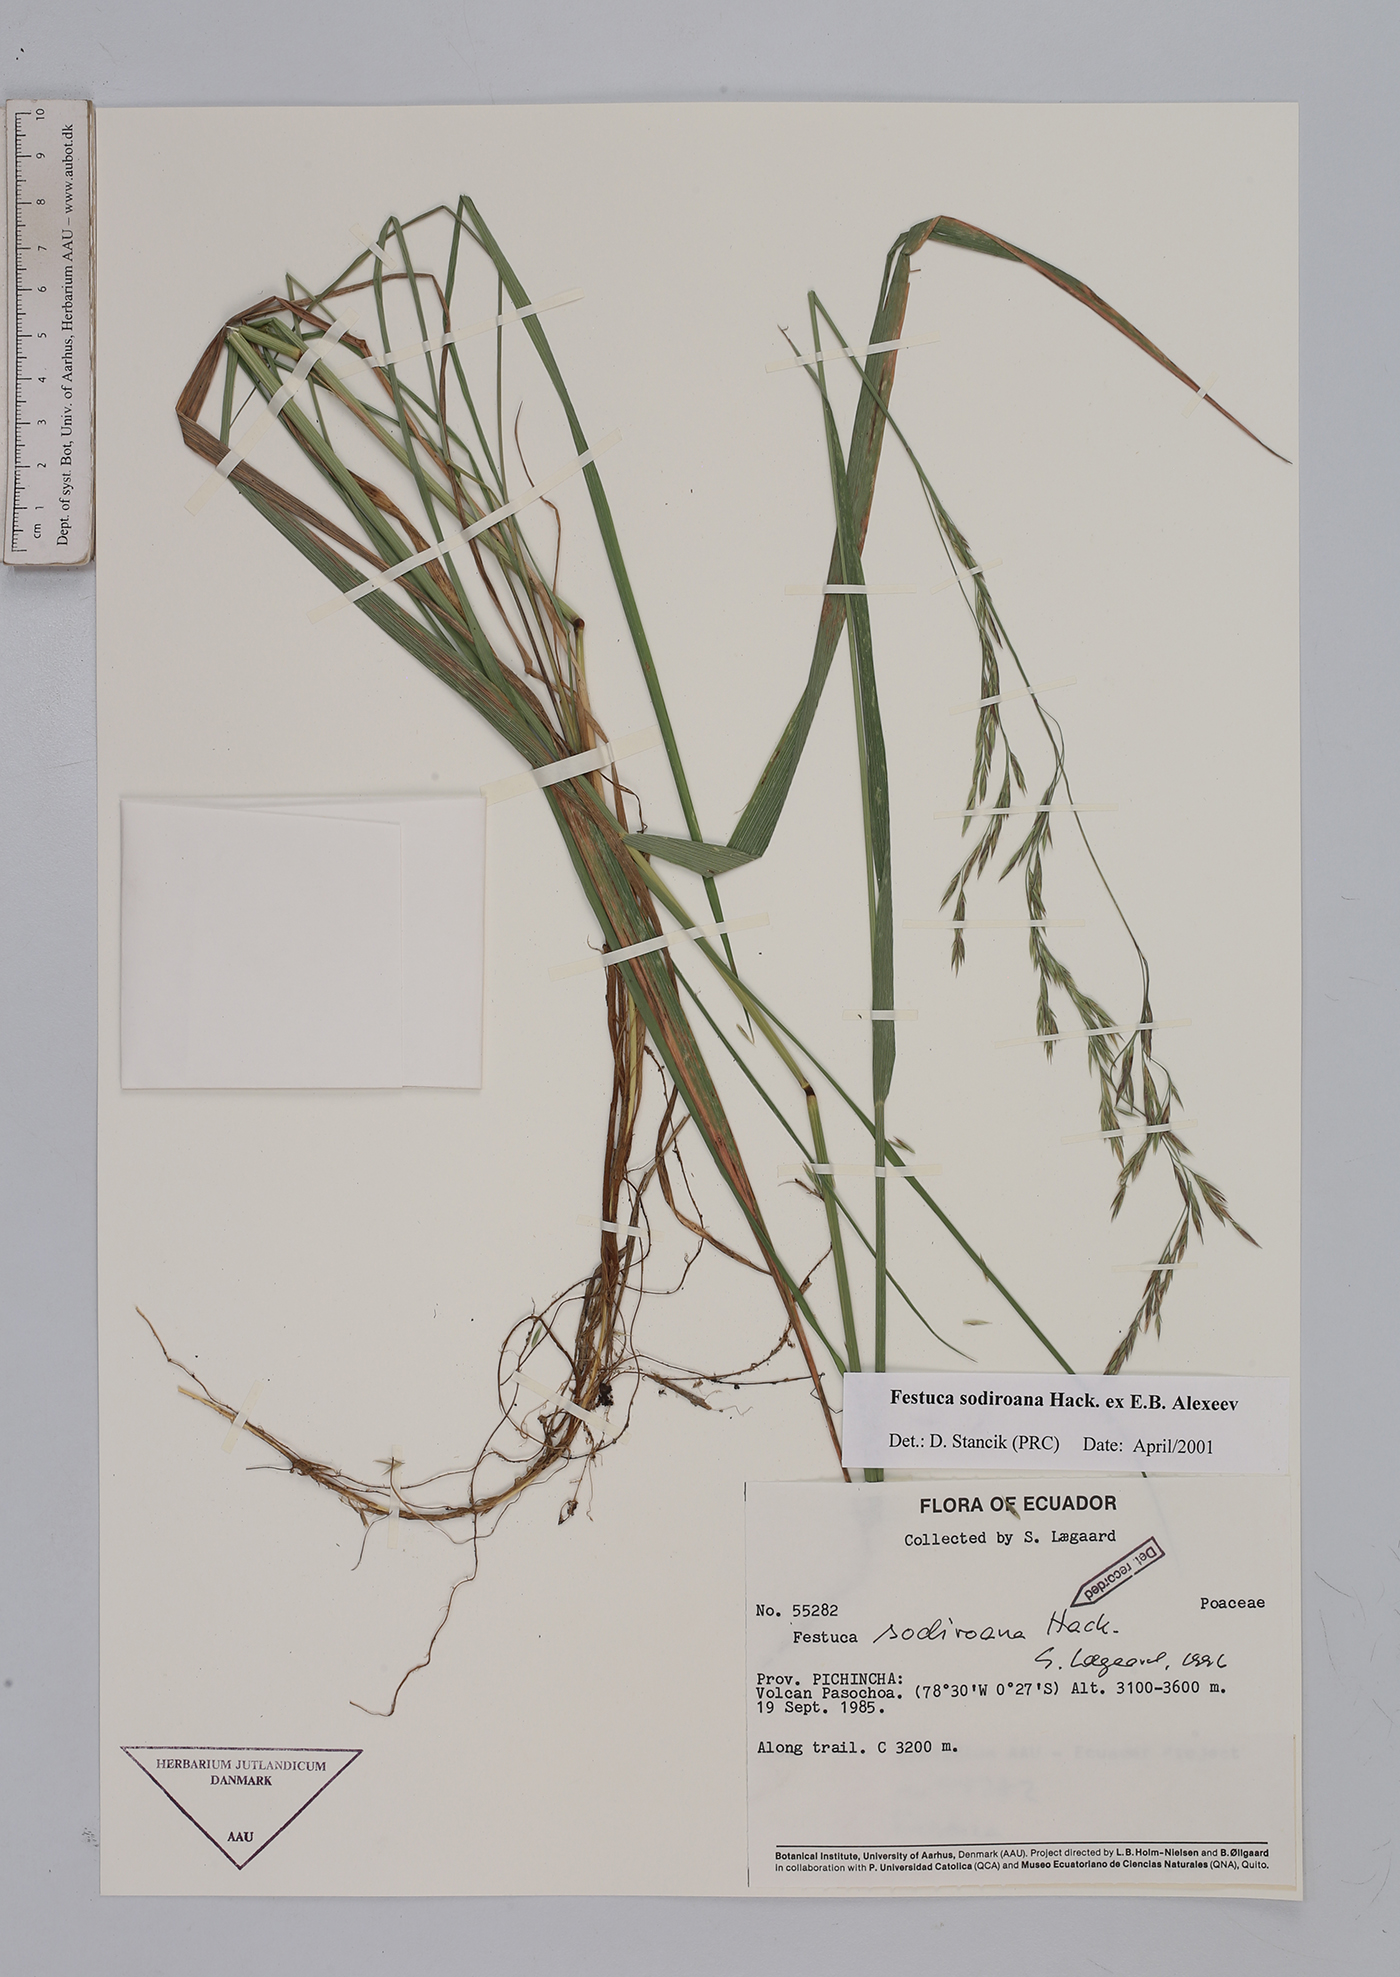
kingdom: Plantae
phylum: Tracheophyta
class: Liliopsida
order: Poales
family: Poaceae
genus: Festuca
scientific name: Festuca sodiroana
